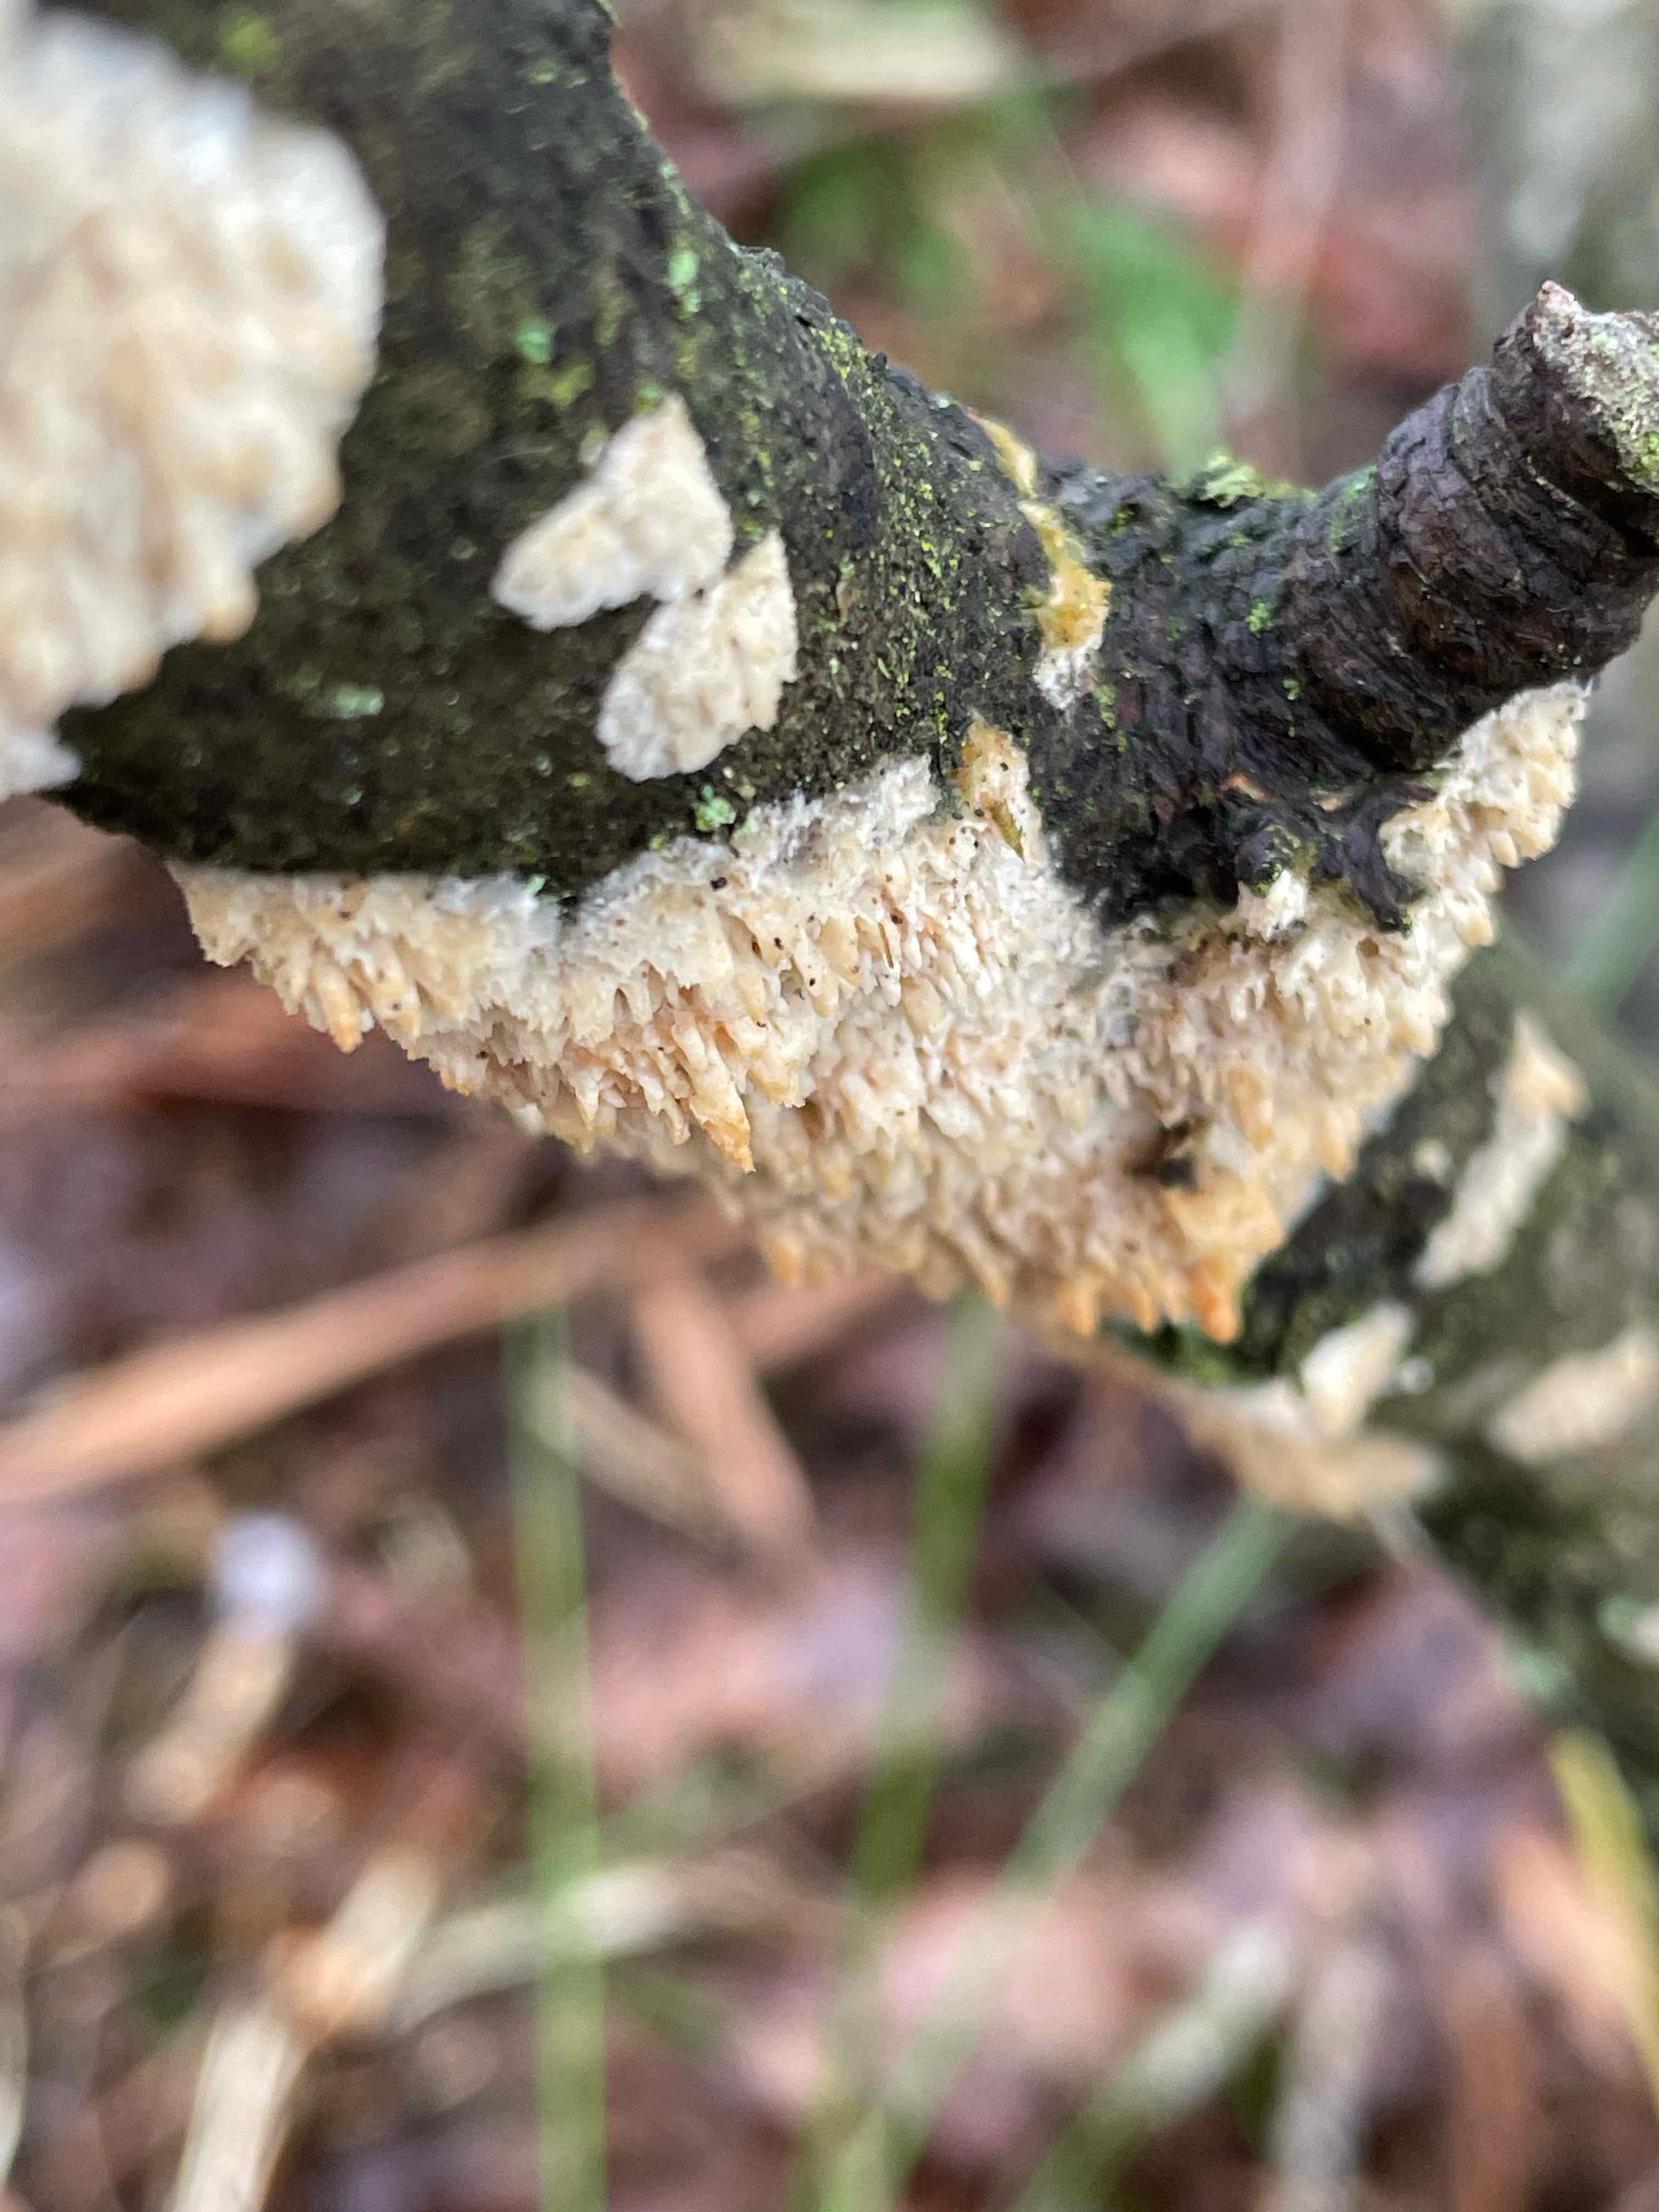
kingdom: Fungi
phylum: Basidiomycota
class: Agaricomycetes
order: Hymenochaetales
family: Schizoporaceae
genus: Xylodon
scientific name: Xylodon radula
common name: grovtandet kalkskind
